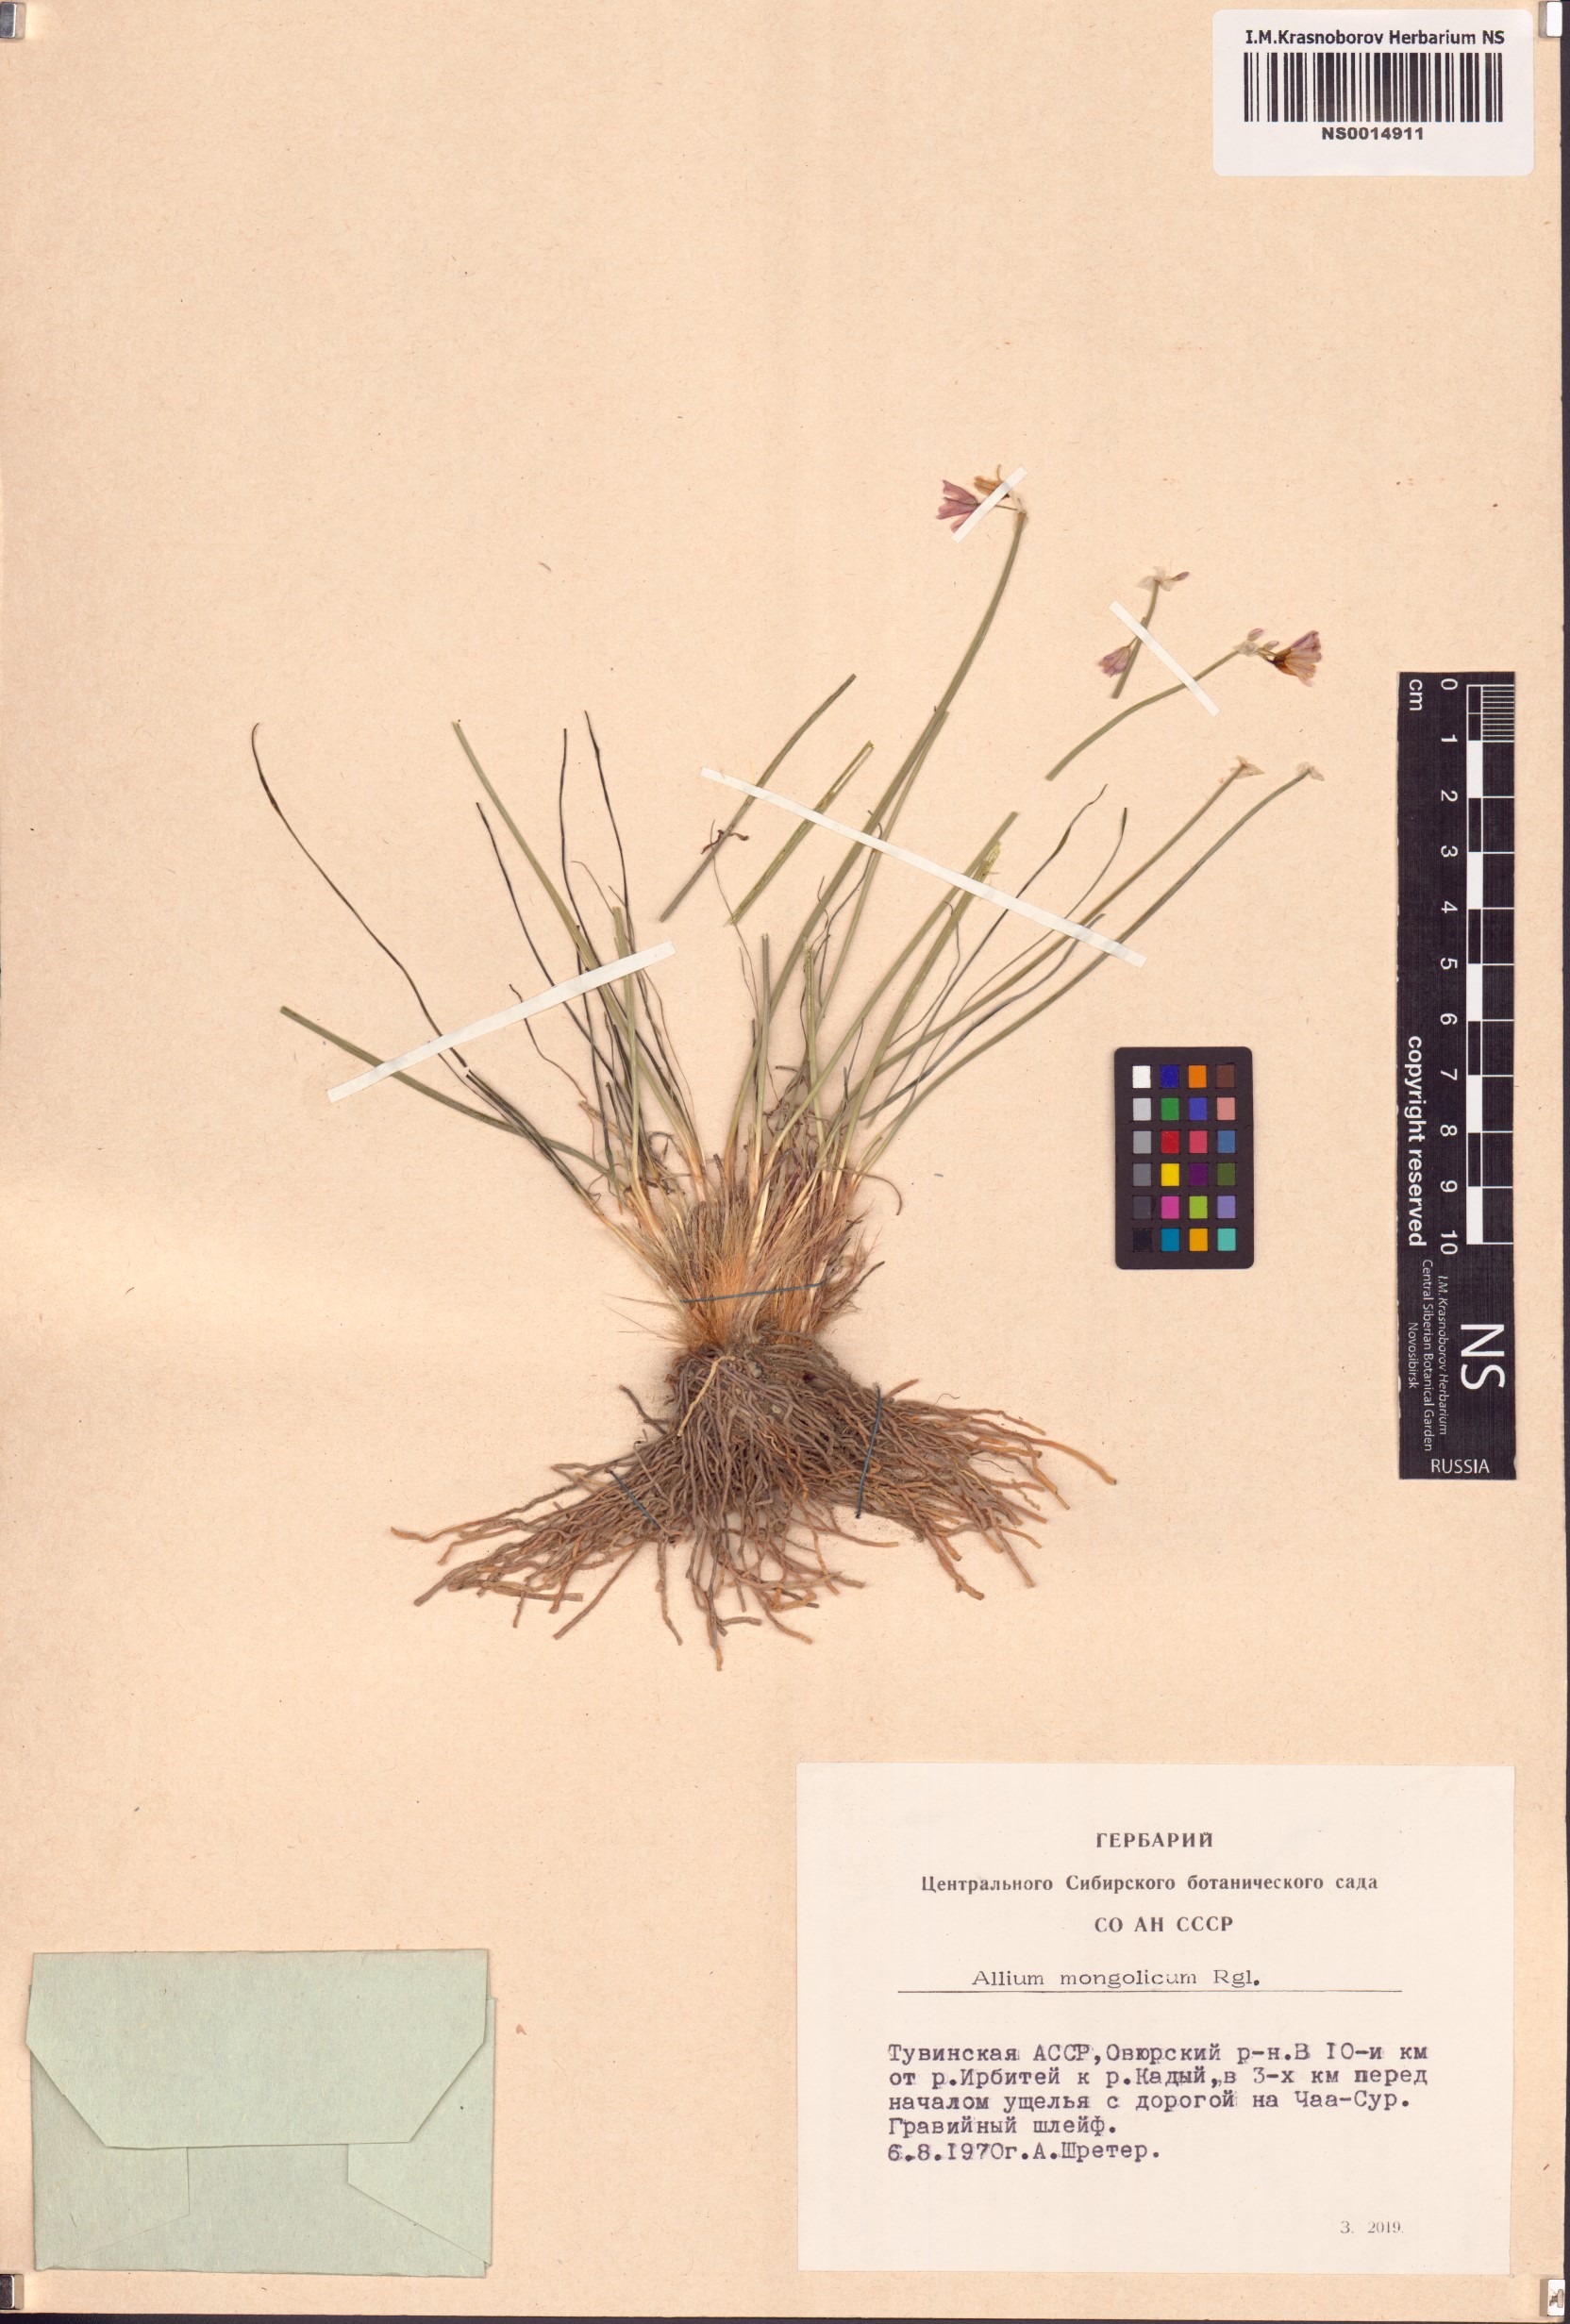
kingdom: Plantae
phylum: Tracheophyta
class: Liliopsida
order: Asparagales
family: Amaryllidaceae
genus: Allium
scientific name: Allium mongolicum
